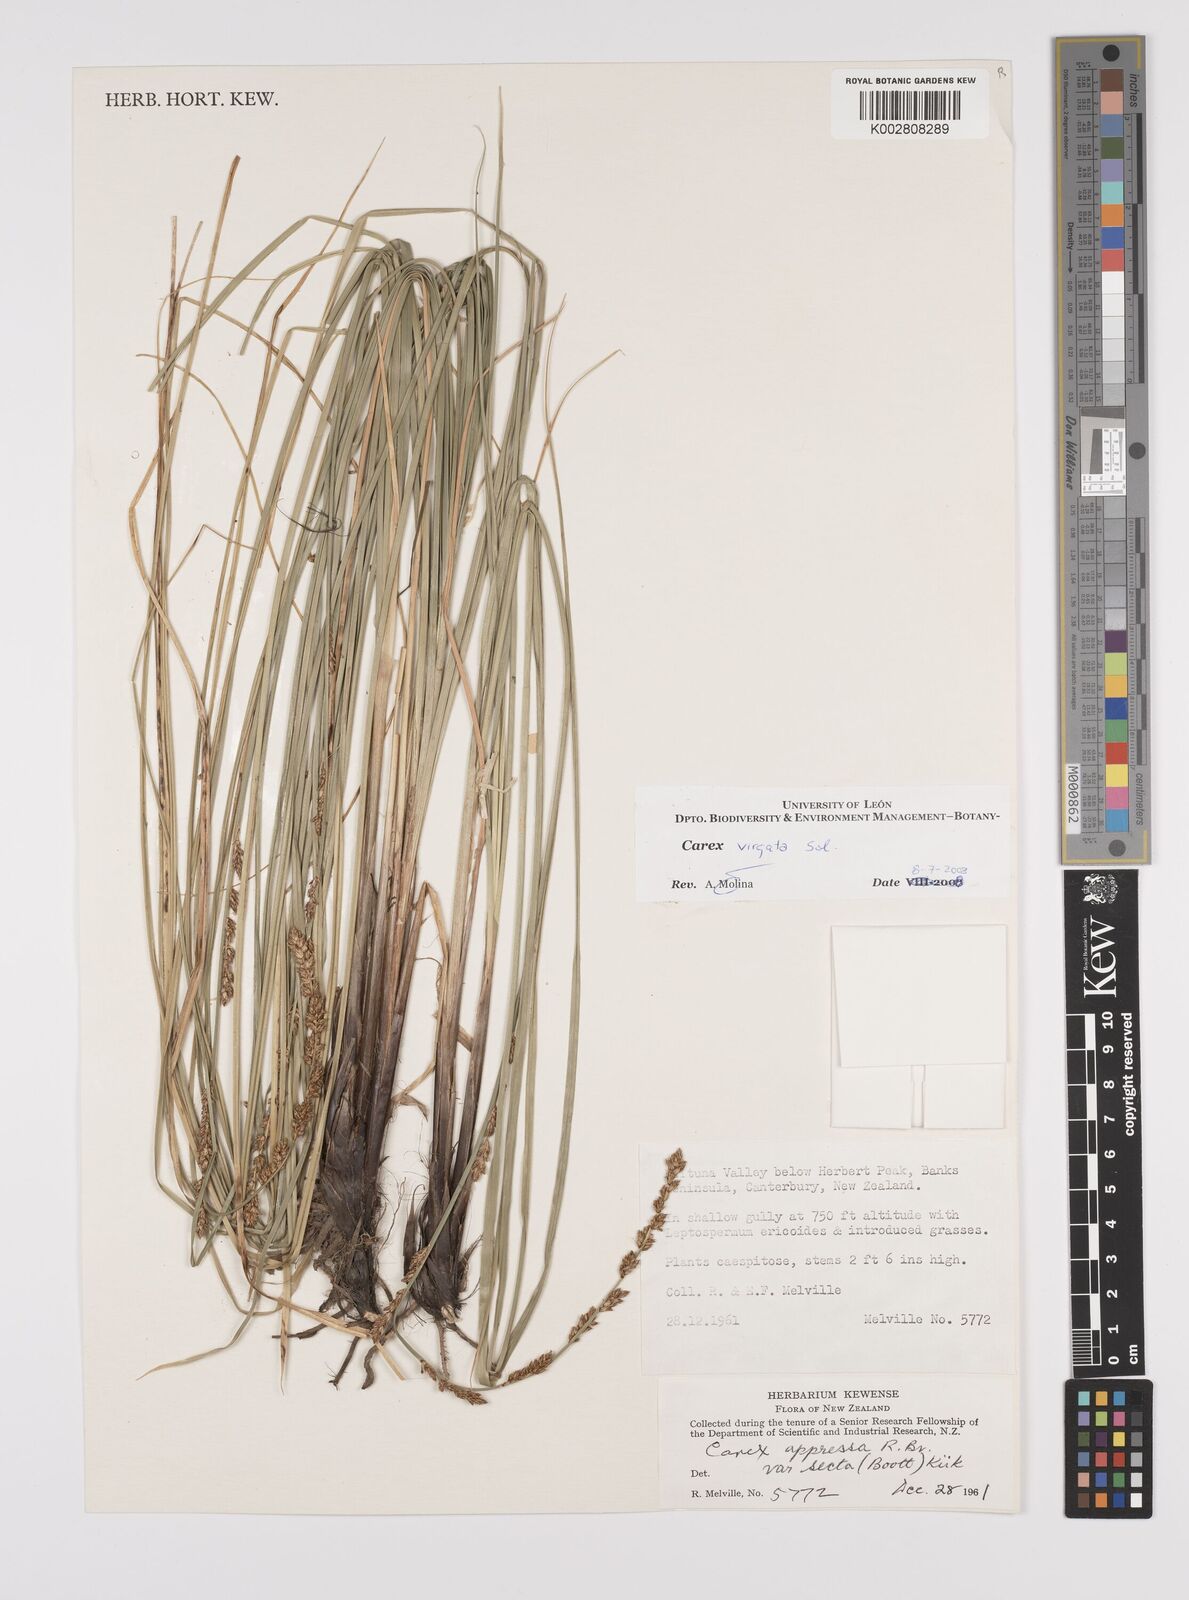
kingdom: Plantae
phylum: Tracheophyta
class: Liliopsida
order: Poales
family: Cyperaceae
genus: Carex
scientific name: Carex appressa
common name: Tussock sedge
